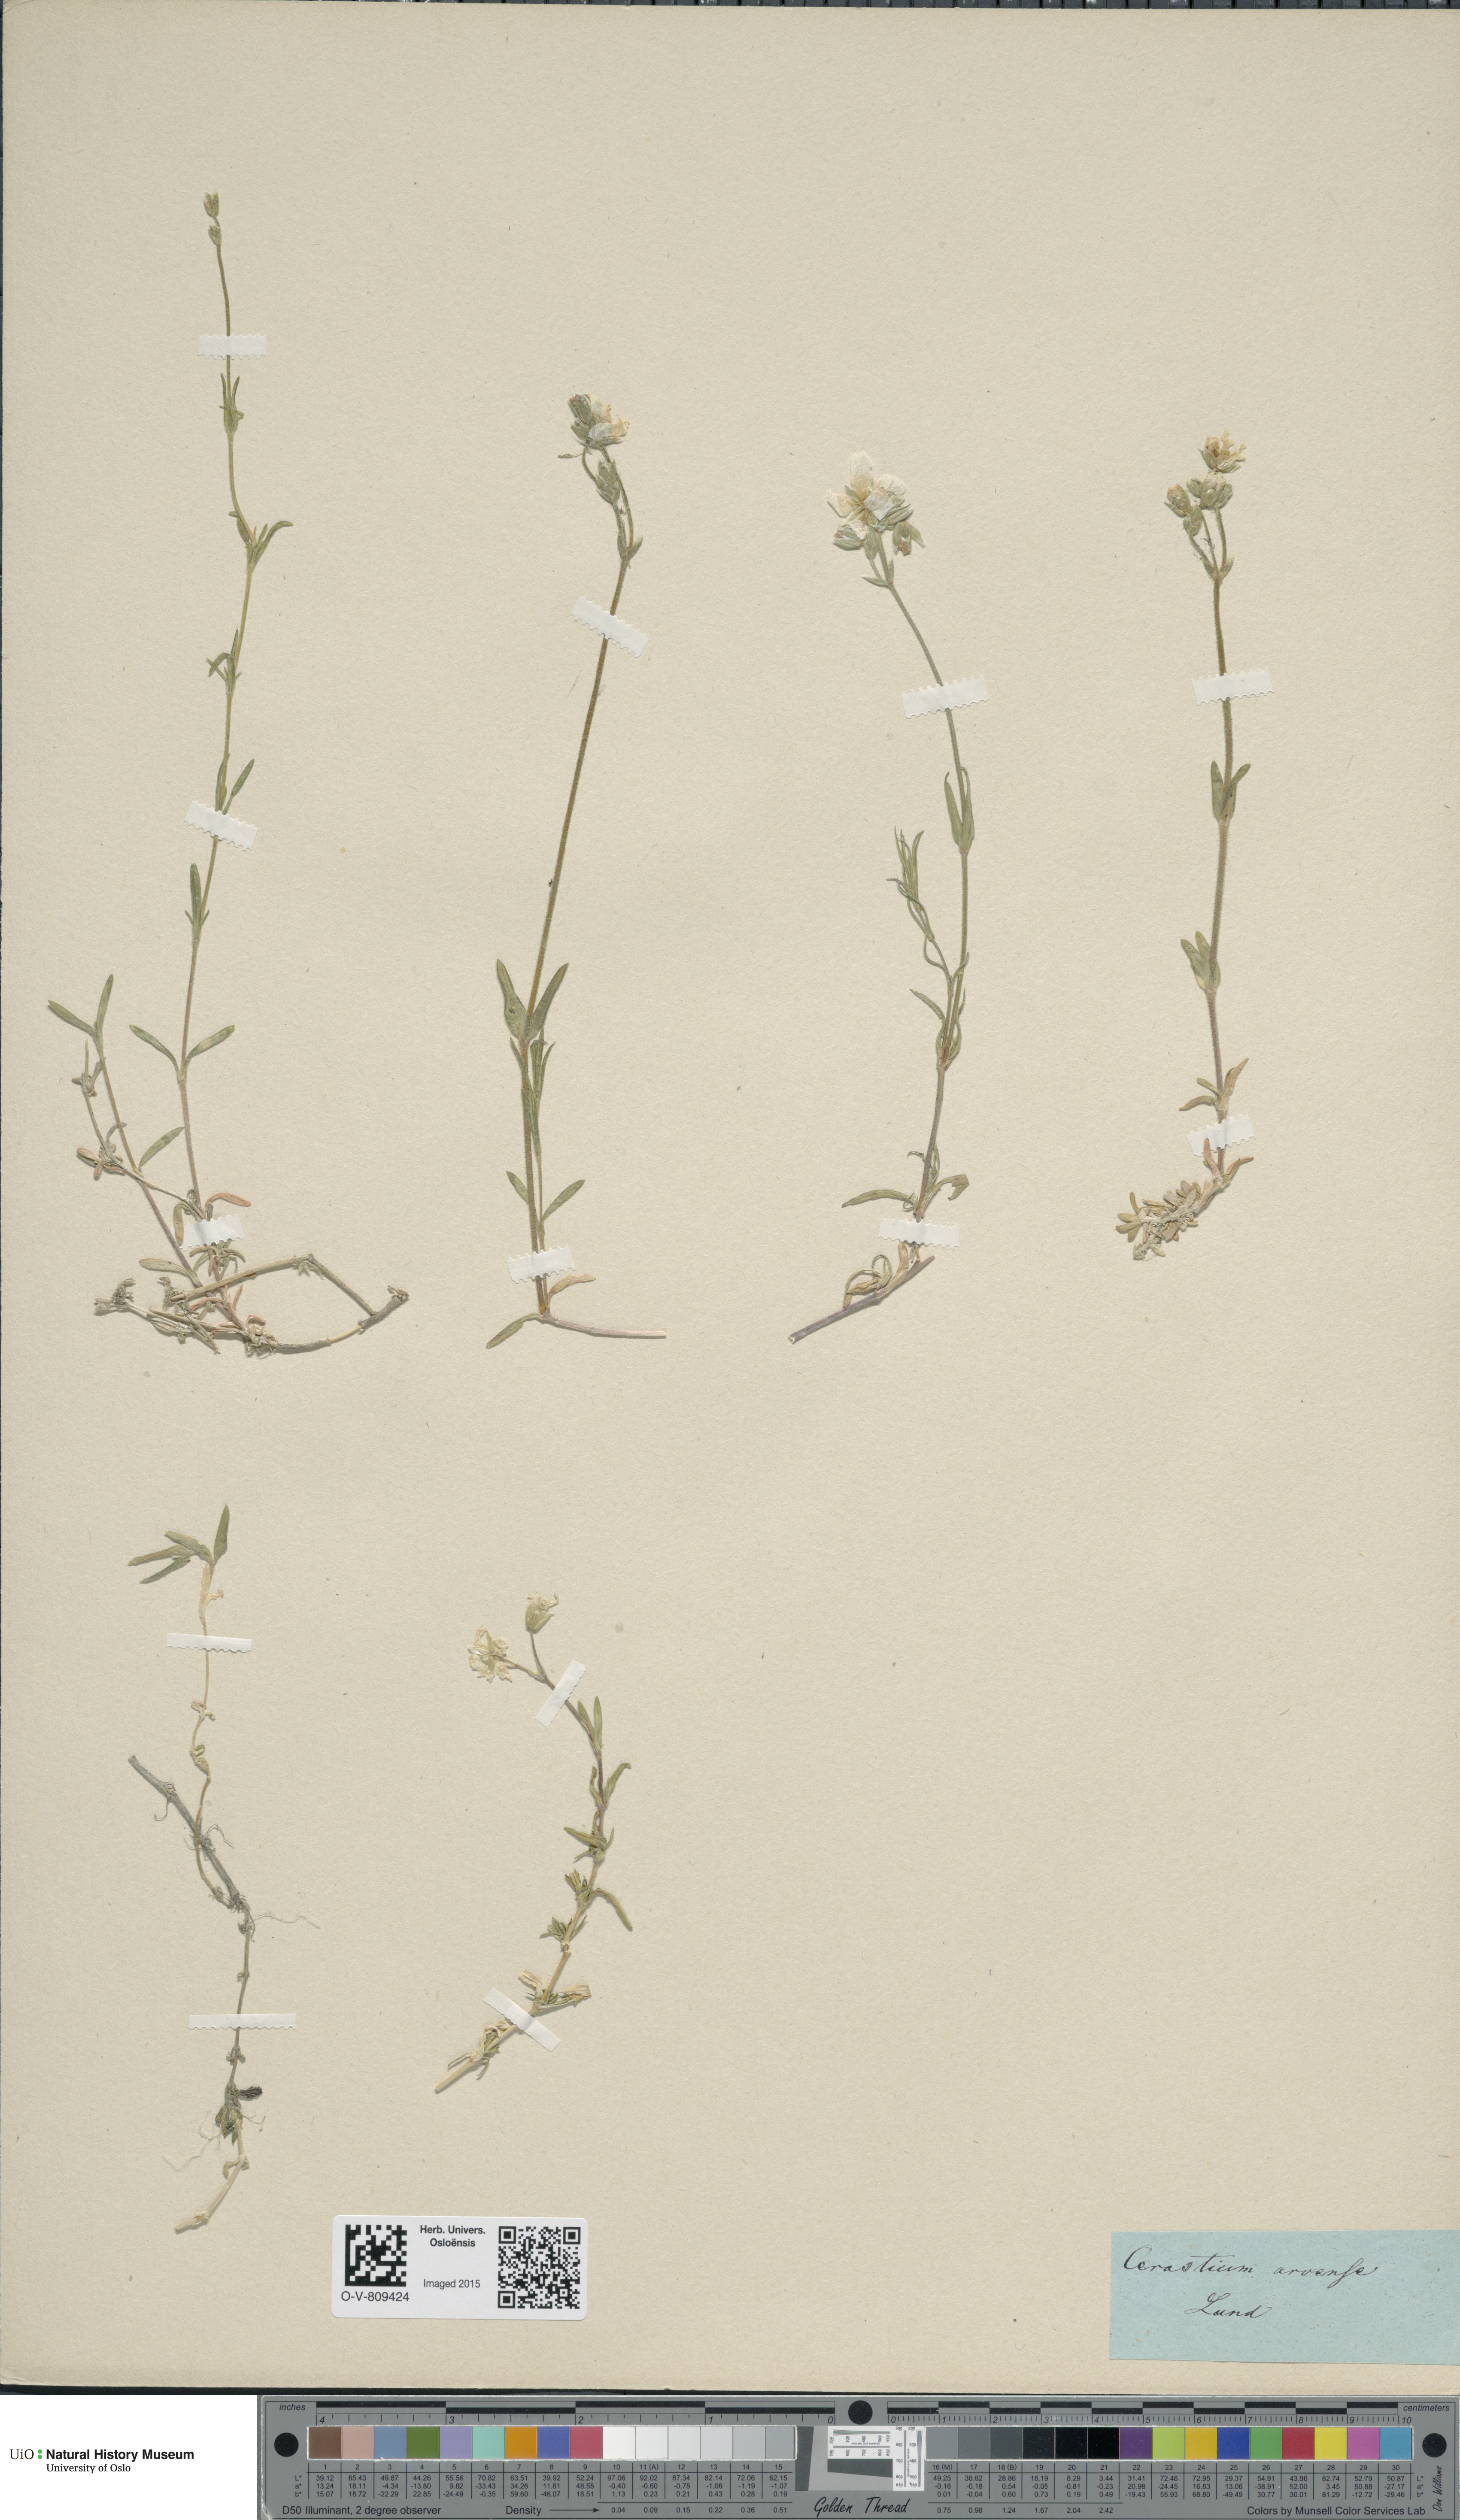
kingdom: Plantae
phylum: Tracheophyta
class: Magnoliopsida
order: Caryophyllales
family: Caryophyllaceae
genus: Cerastium
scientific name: Cerastium arvense
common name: Field mouse-ear
